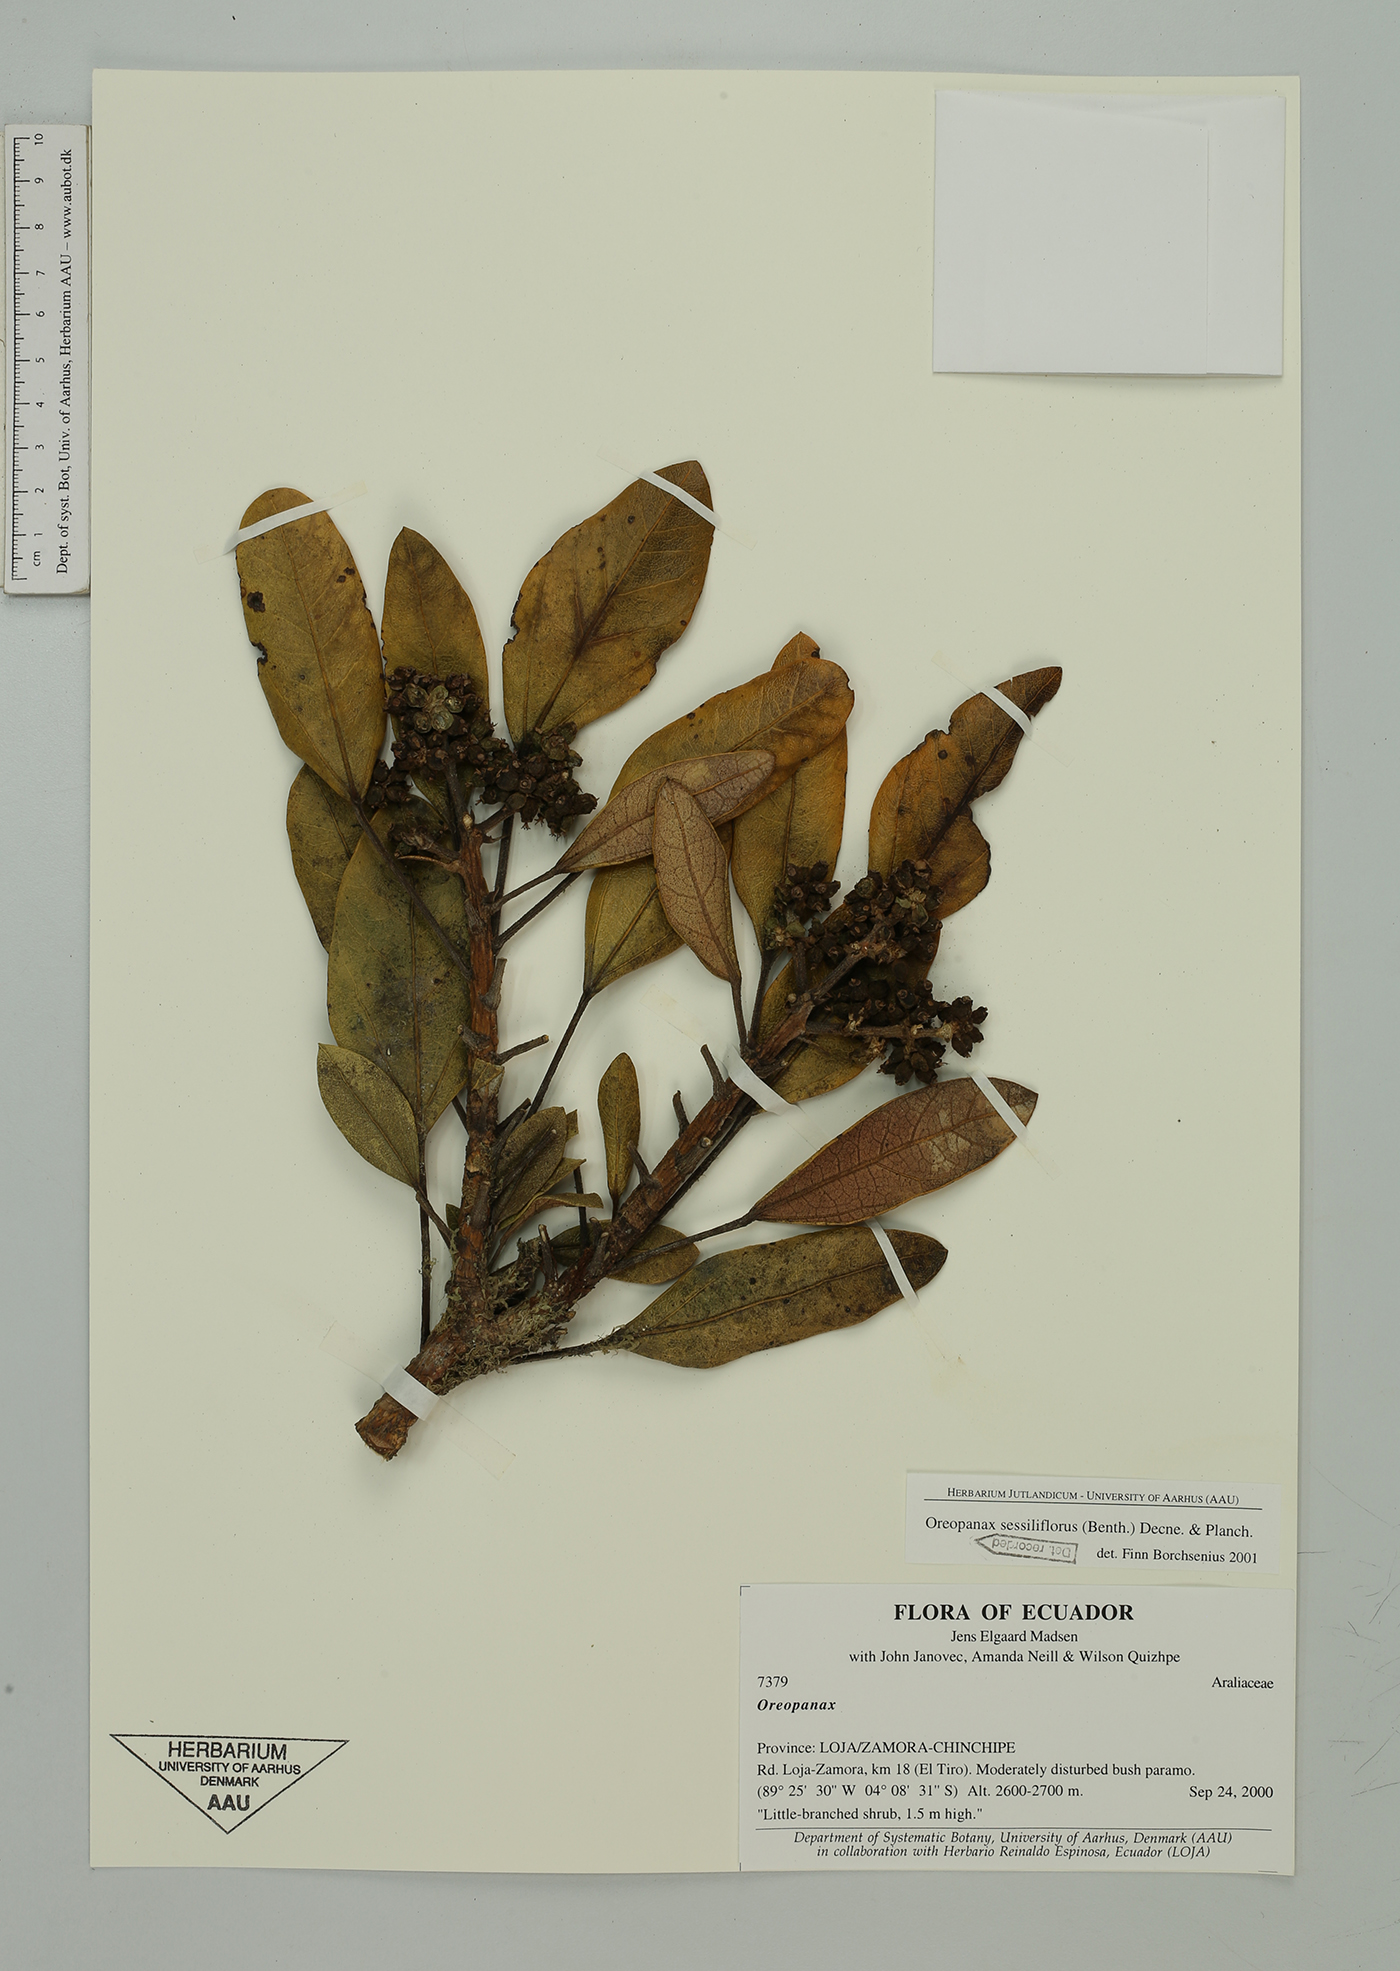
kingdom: Plantae
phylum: Tracheophyta
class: Magnoliopsida
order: Apiales
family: Araliaceae
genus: Oreopanax
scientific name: Oreopanax sessiliflorus
